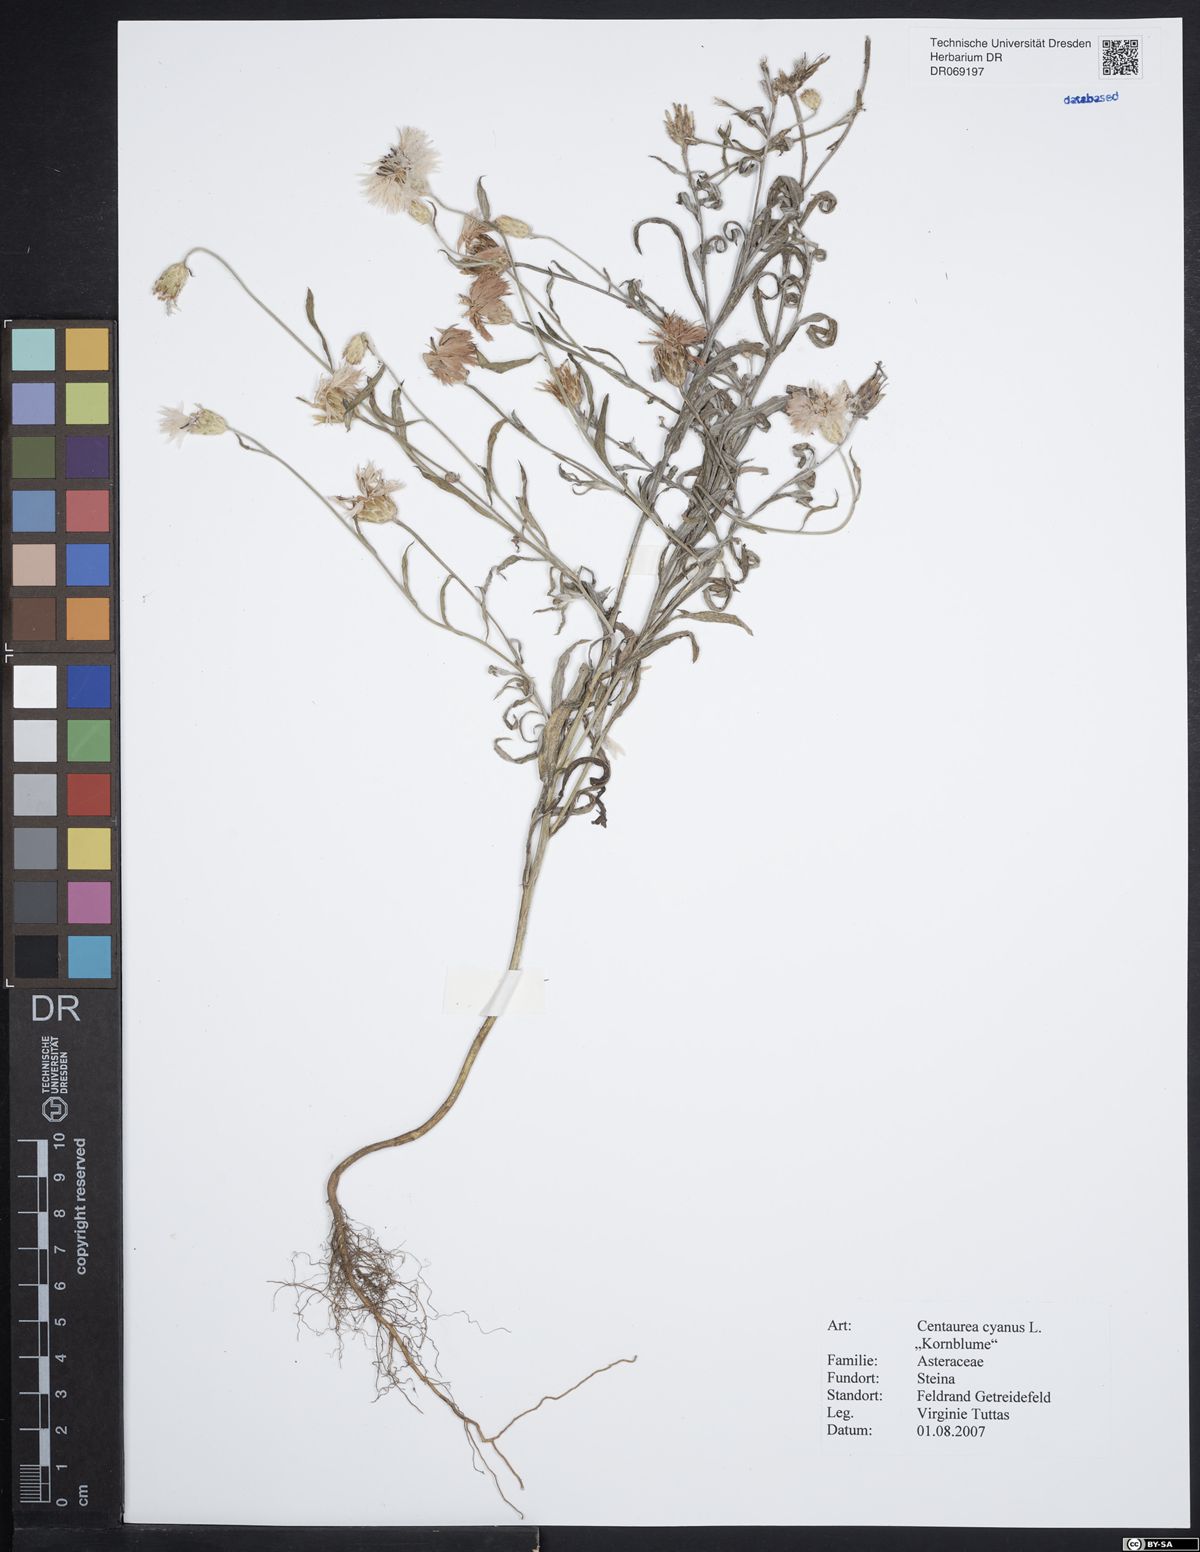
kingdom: Plantae
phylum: Tracheophyta
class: Magnoliopsida
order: Asterales
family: Asteraceae
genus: Centaurea
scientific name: Centaurea cyanus
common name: Cornflower
